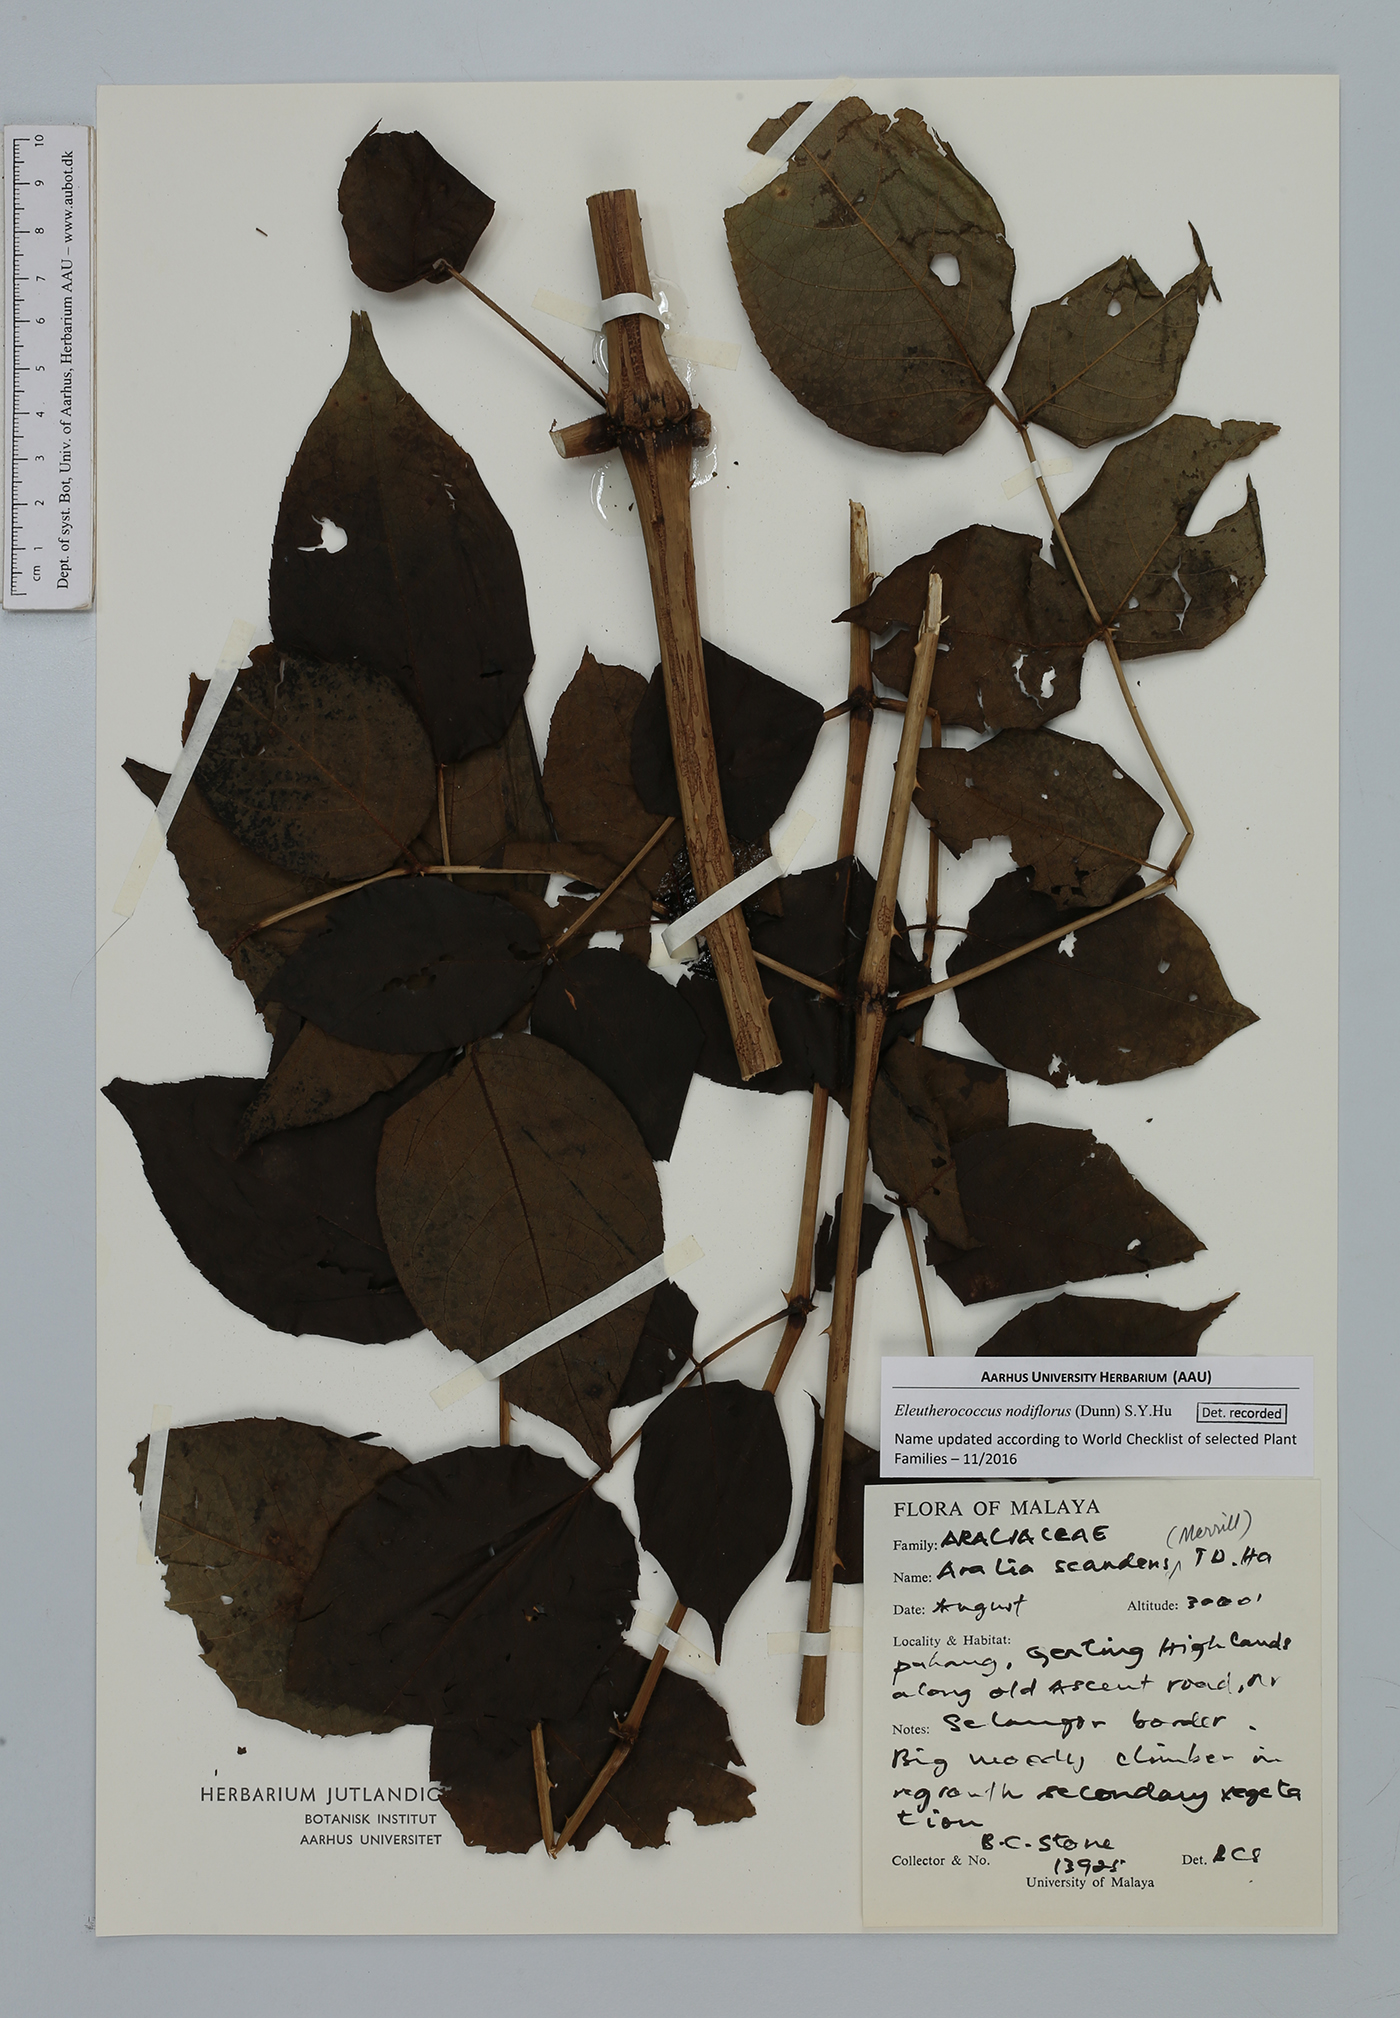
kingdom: Plantae
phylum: Tracheophyta
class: Magnoliopsida
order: Apiales
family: Araliaceae
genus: Eleutherococcus
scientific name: Eleutherococcus nodiflorus
